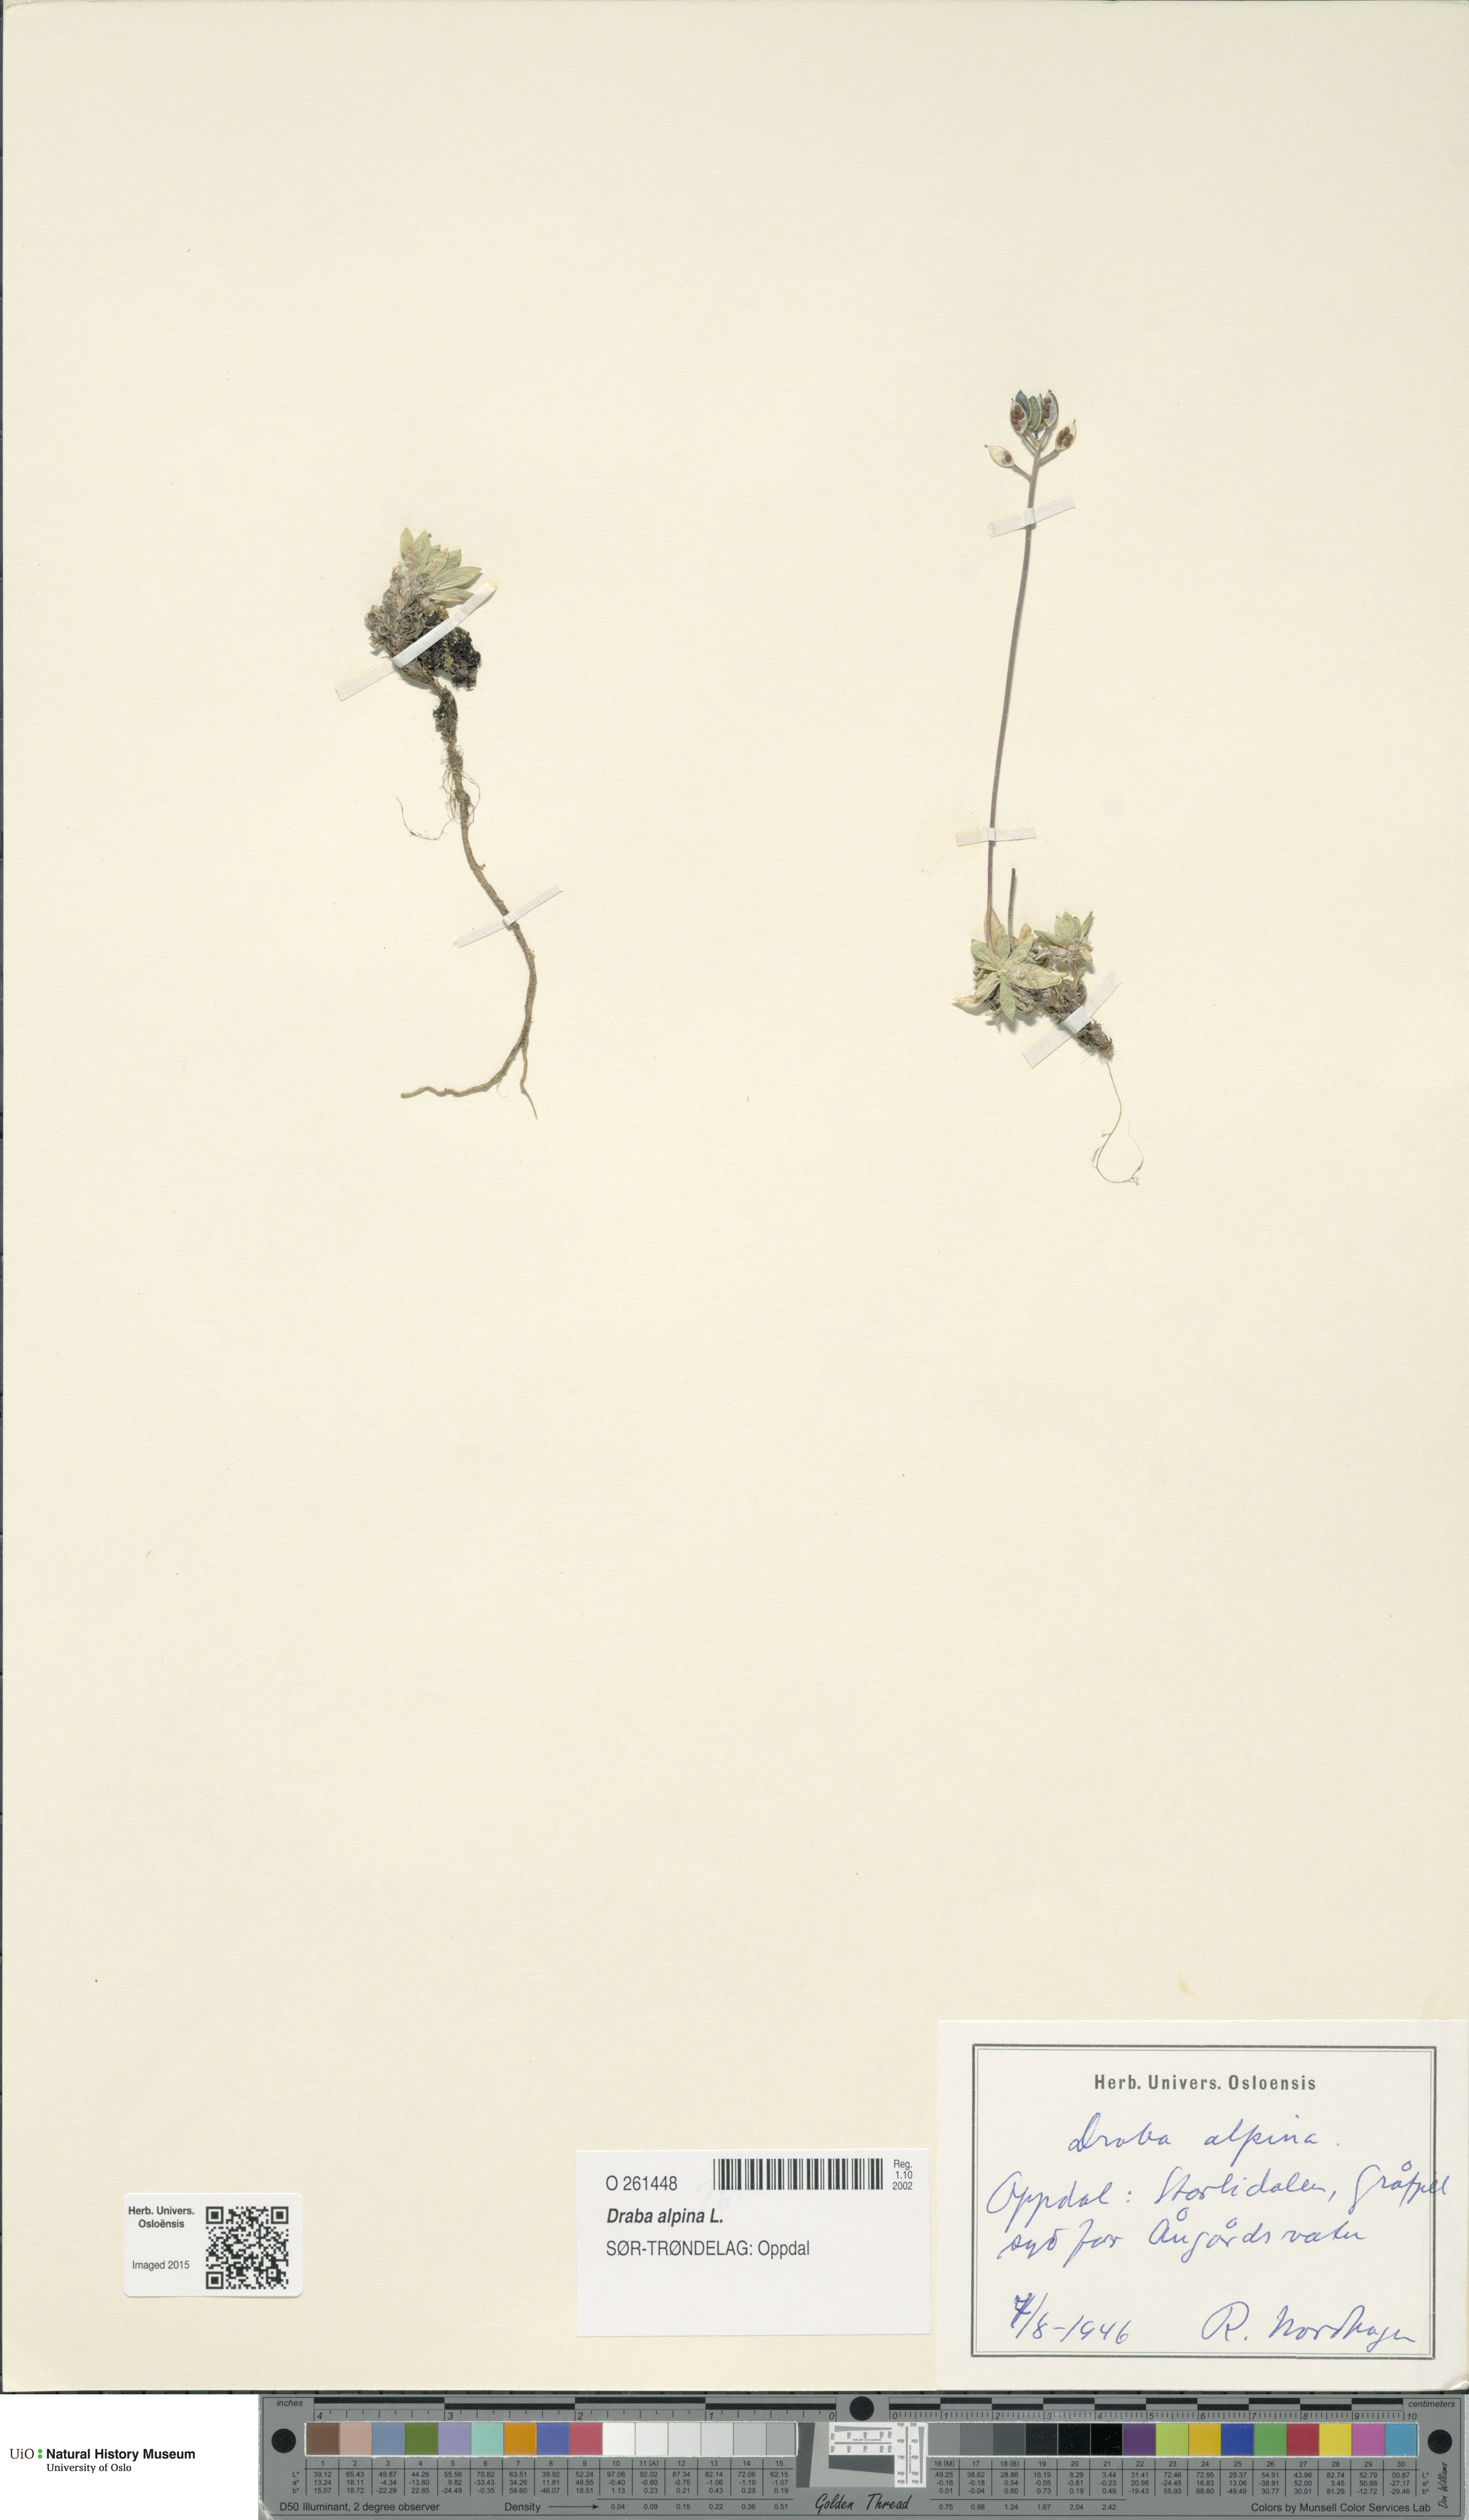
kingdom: Plantae
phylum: Tracheophyta
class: Magnoliopsida
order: Brassicales
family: Brassicaceae
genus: Draba
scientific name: Draba alpina
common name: Alpine draba
